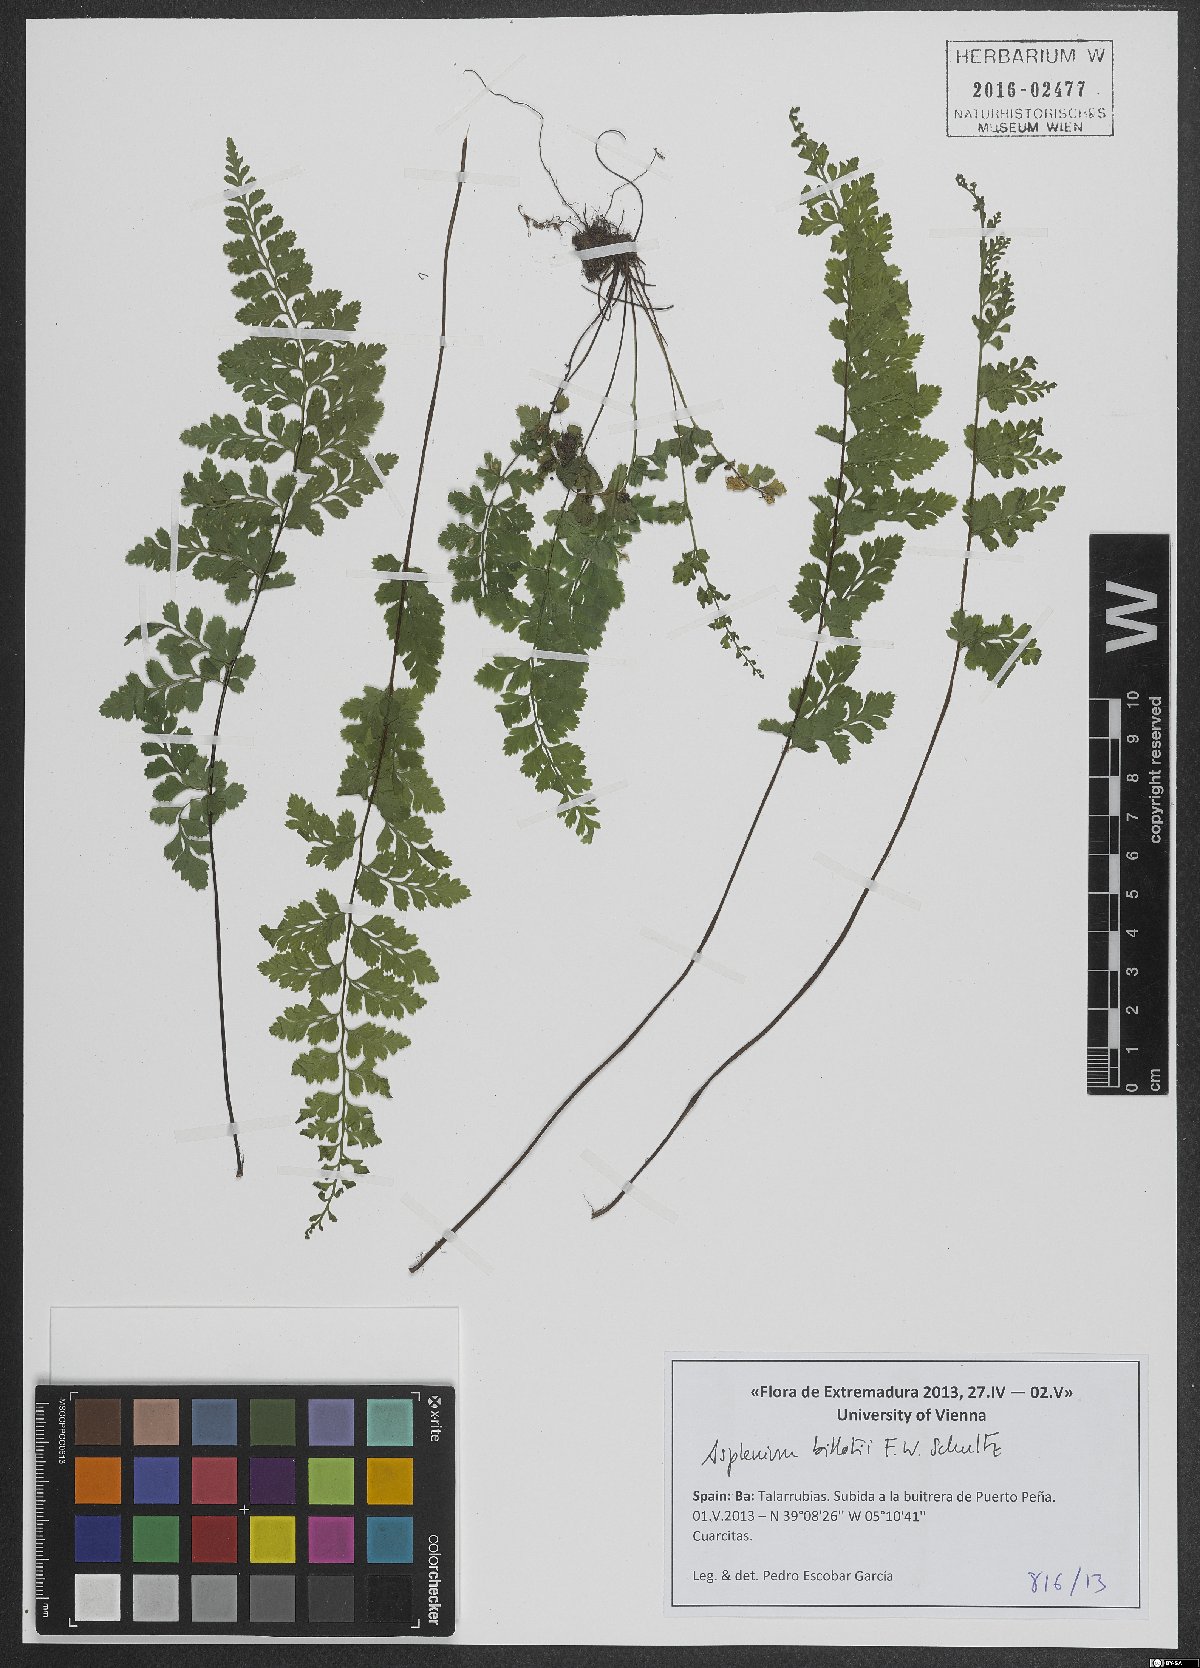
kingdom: Plantae
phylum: Tracheophyta
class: Polypodiopsida
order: Polypodiales
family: Aspleniaceae
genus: Asplenium
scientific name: Asplenium obovatum
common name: Lanceolate spleenwort
